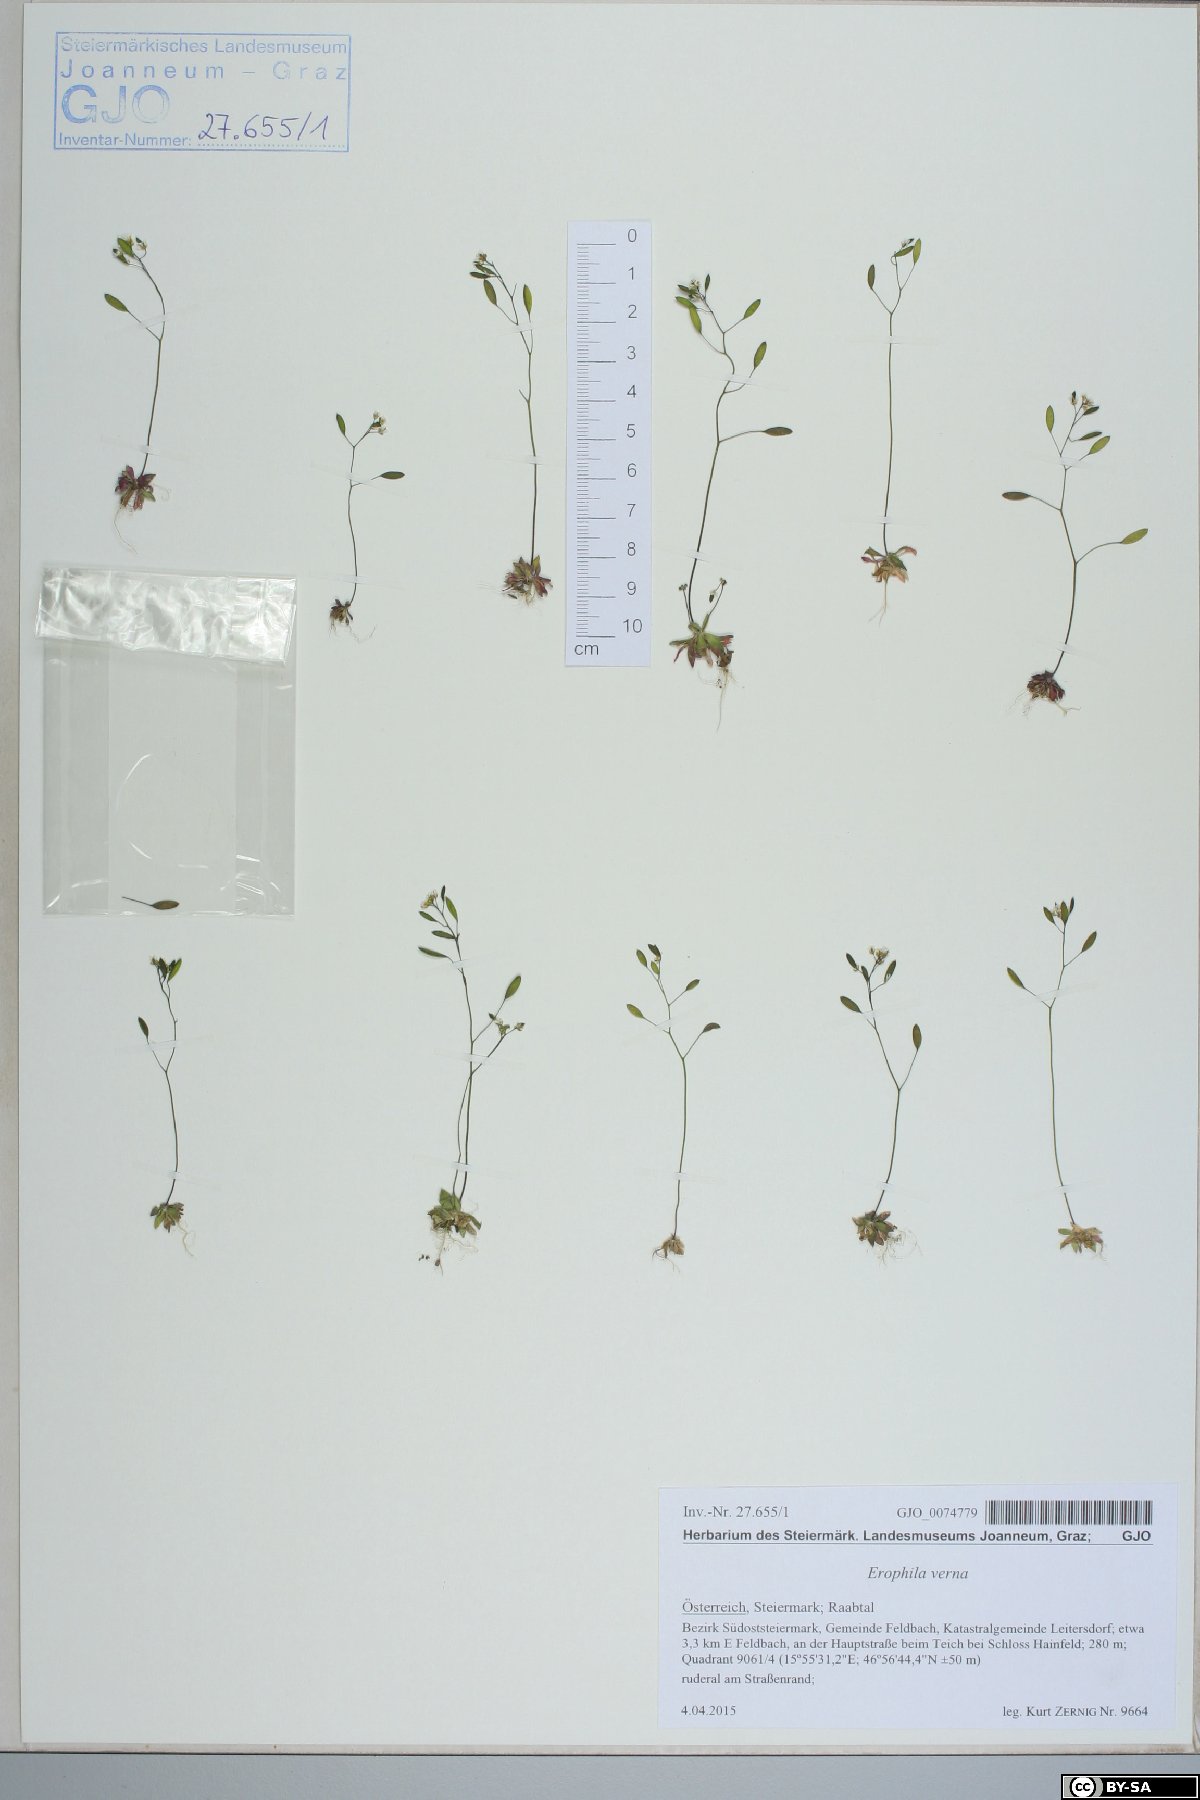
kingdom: Plantae
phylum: Tracheophyta
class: Magnoliopsida
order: Brassicales
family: Brassicaceae
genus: Draba
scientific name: Draba verna
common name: Spring draba
